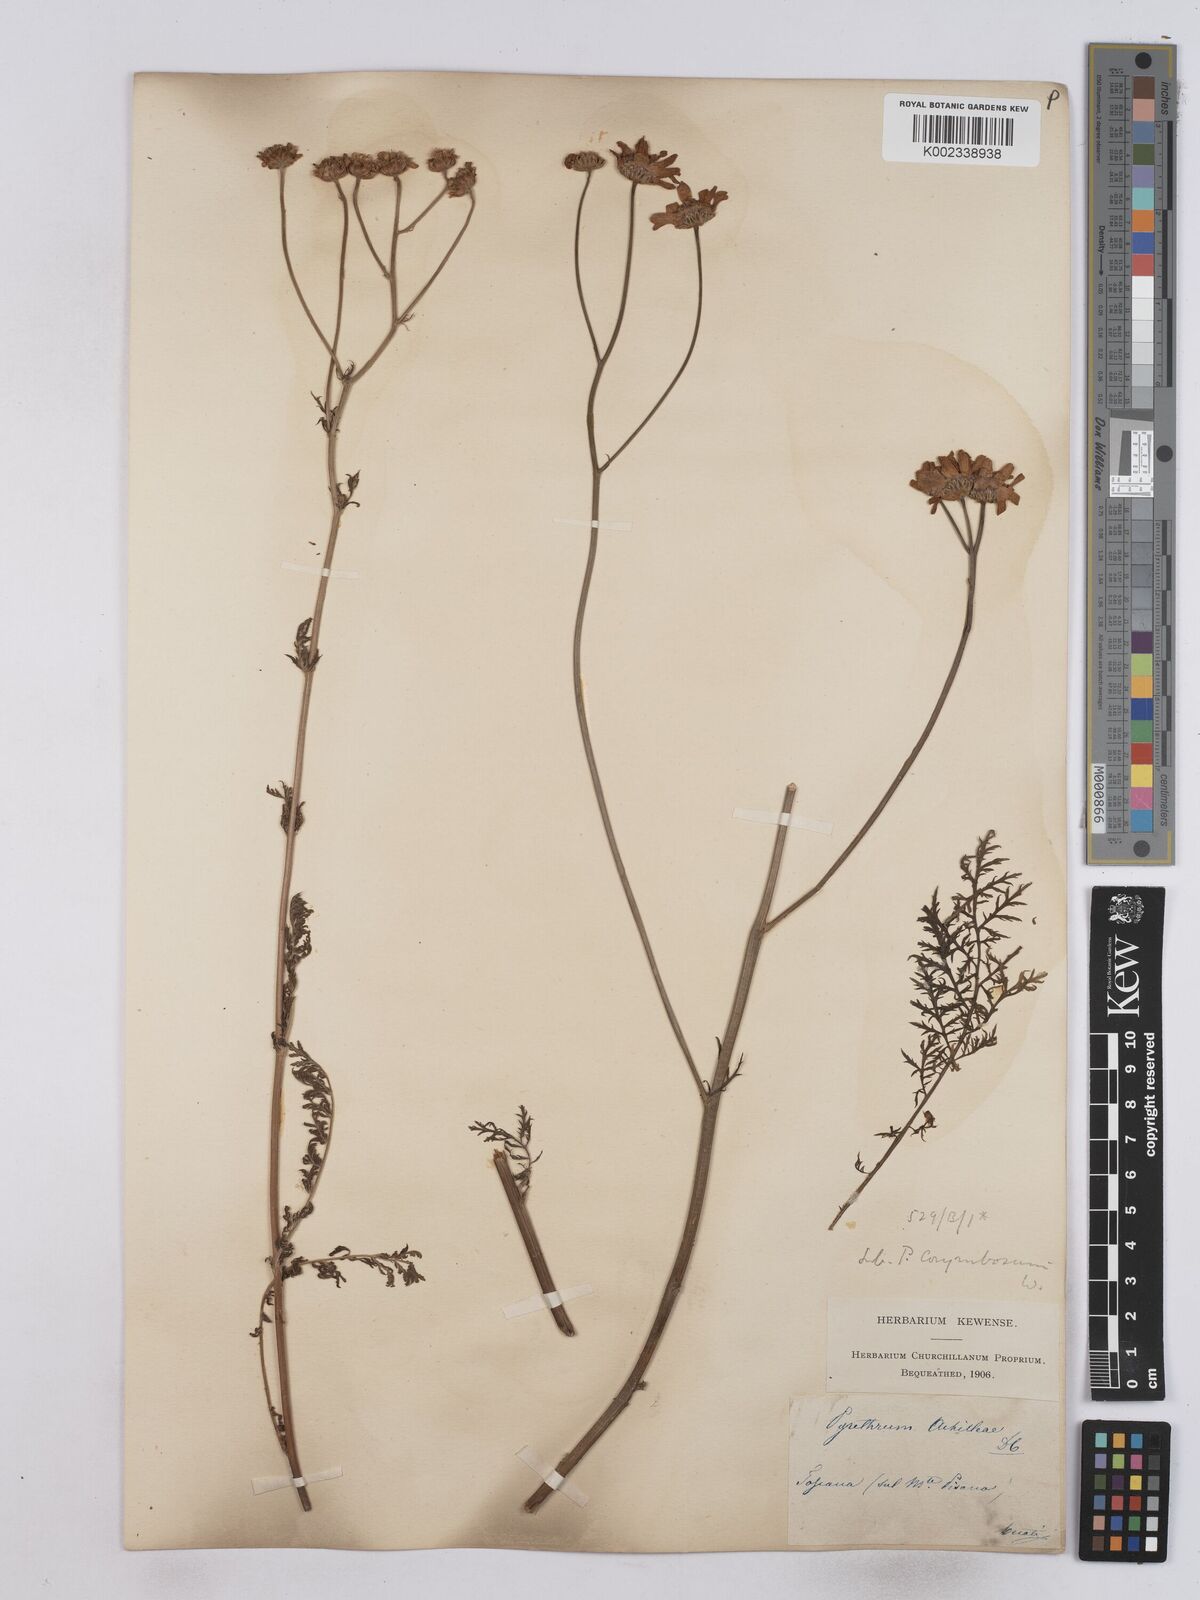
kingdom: Plantae
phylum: Tracheophyta
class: Magnoliopsida
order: Asterales
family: Asteraceae
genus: Tanacetum
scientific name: Tanacetum achilleae
